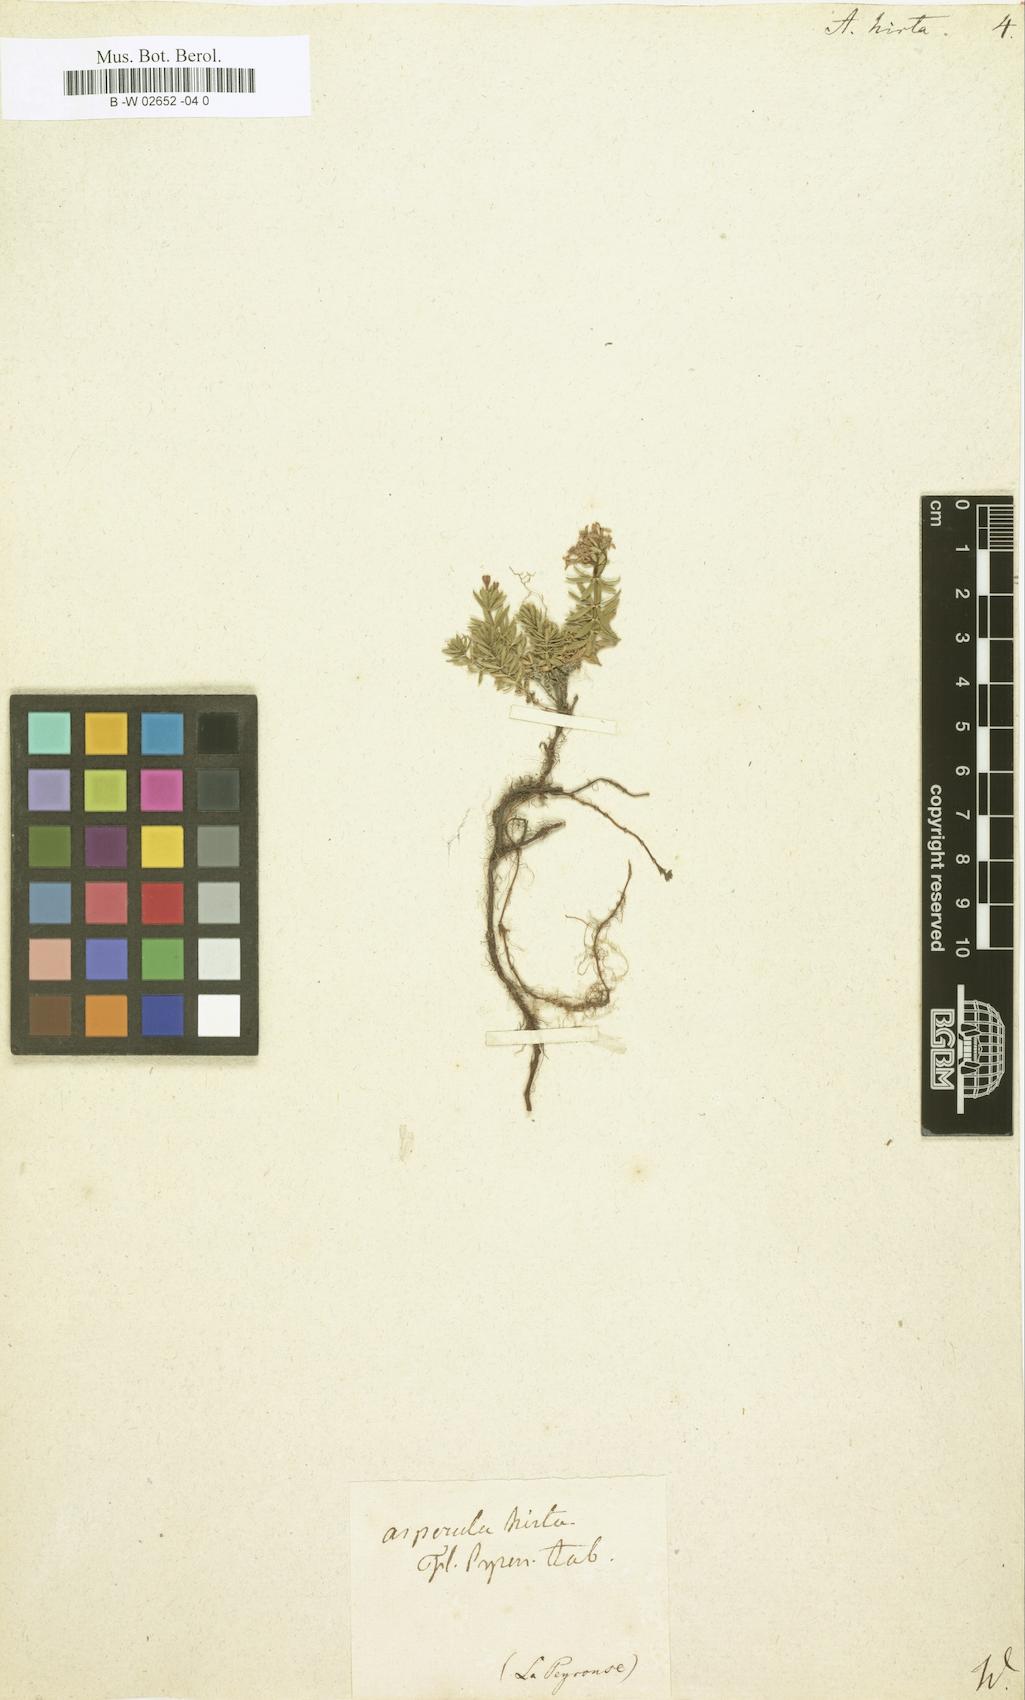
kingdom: Plantae
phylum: Tracheophyta
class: Magnoliopsida
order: Gentianales
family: Rubiaceae
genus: Hexaphylla
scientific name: Hexaphylla hirta
